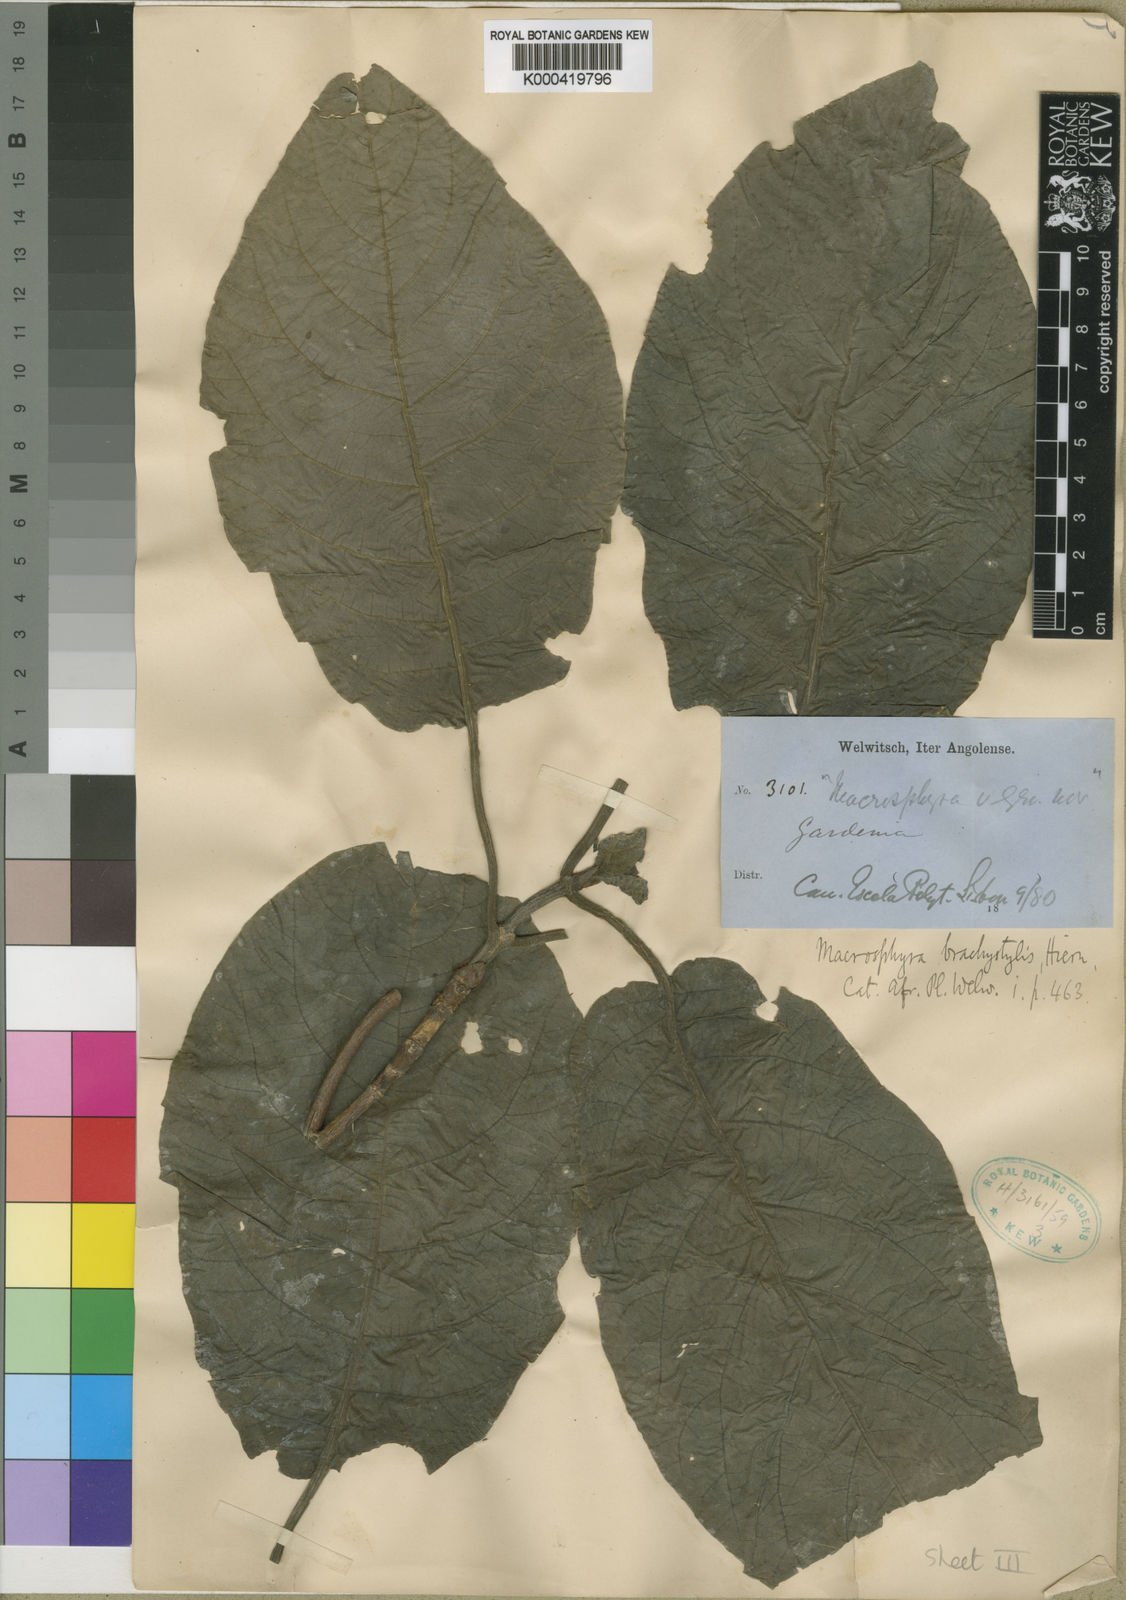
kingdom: Plantae
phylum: Tracheophyta
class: Magnoliopsida
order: Gentianales
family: Rubiaceae
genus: Macrosphyra
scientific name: Macrosphyra brachystylis
